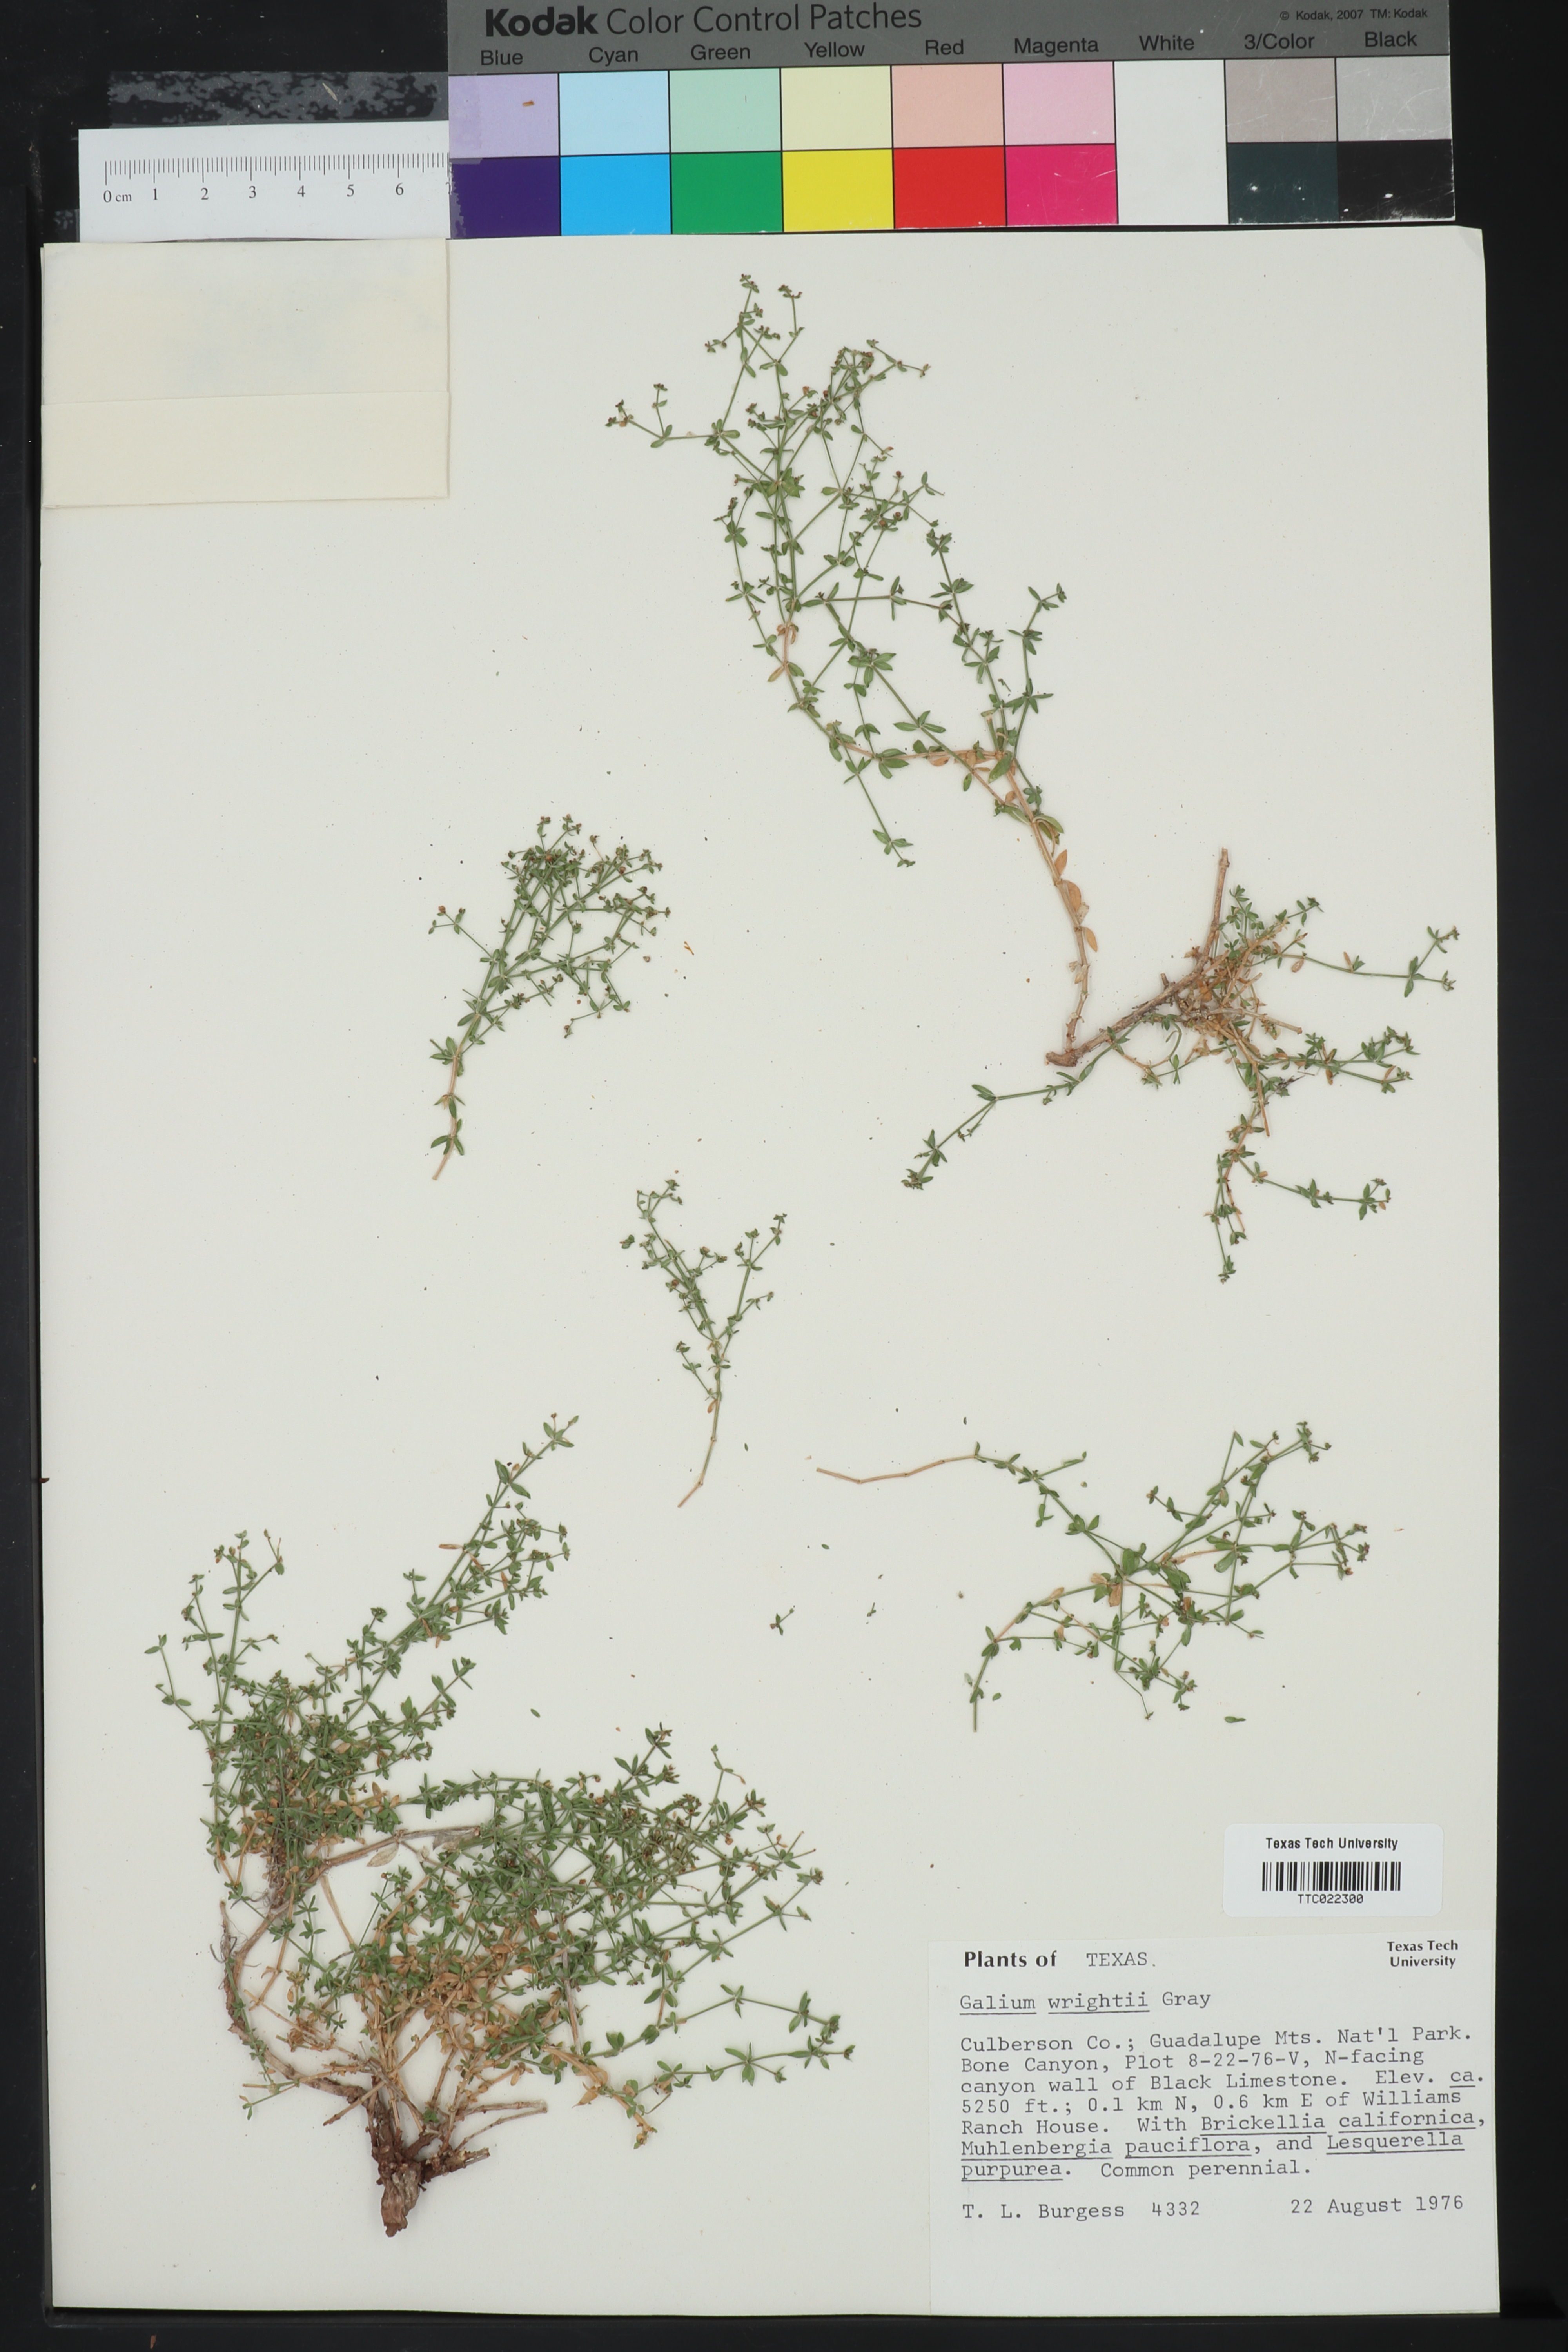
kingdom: Plantae
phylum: Tracheophyta
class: Magnoliopsida
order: Gentianales
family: Rubiaceae
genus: Galium
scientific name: Galium wrightii
